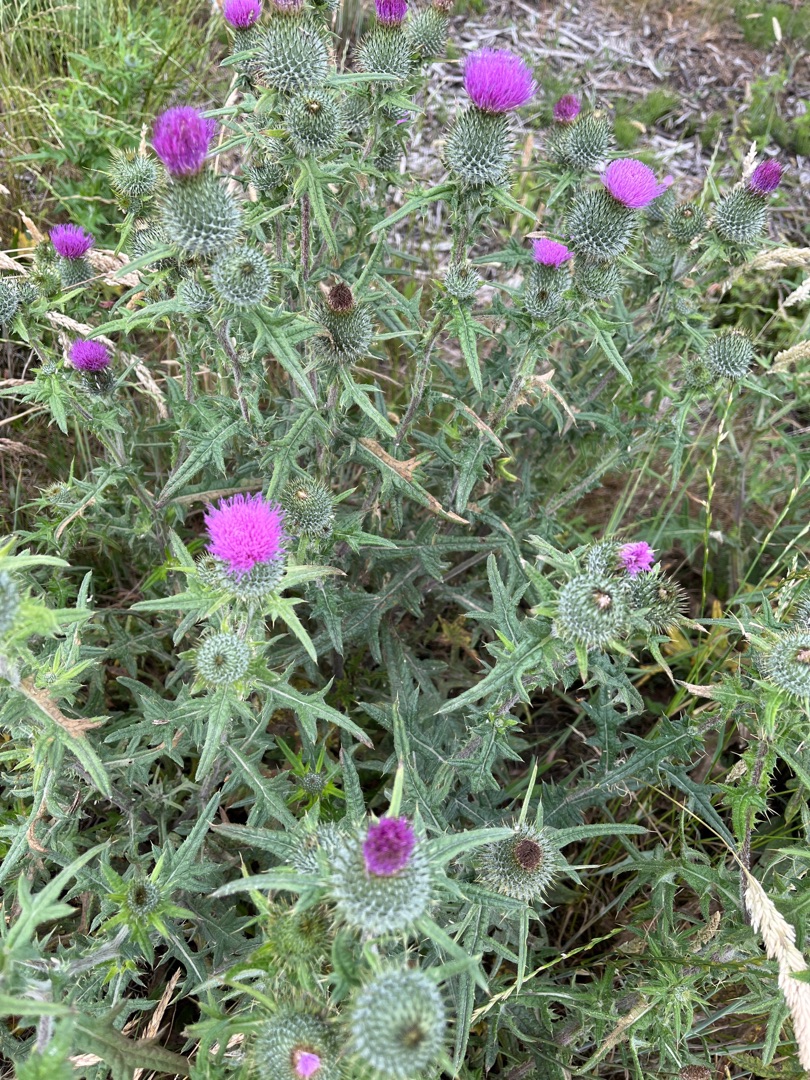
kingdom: Plantae
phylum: Tracheophyta
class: Magnoliopsida
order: Asterales
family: Asteraceae
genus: Cirsium
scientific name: Cirsium vulgare
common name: Horse-tidsel
